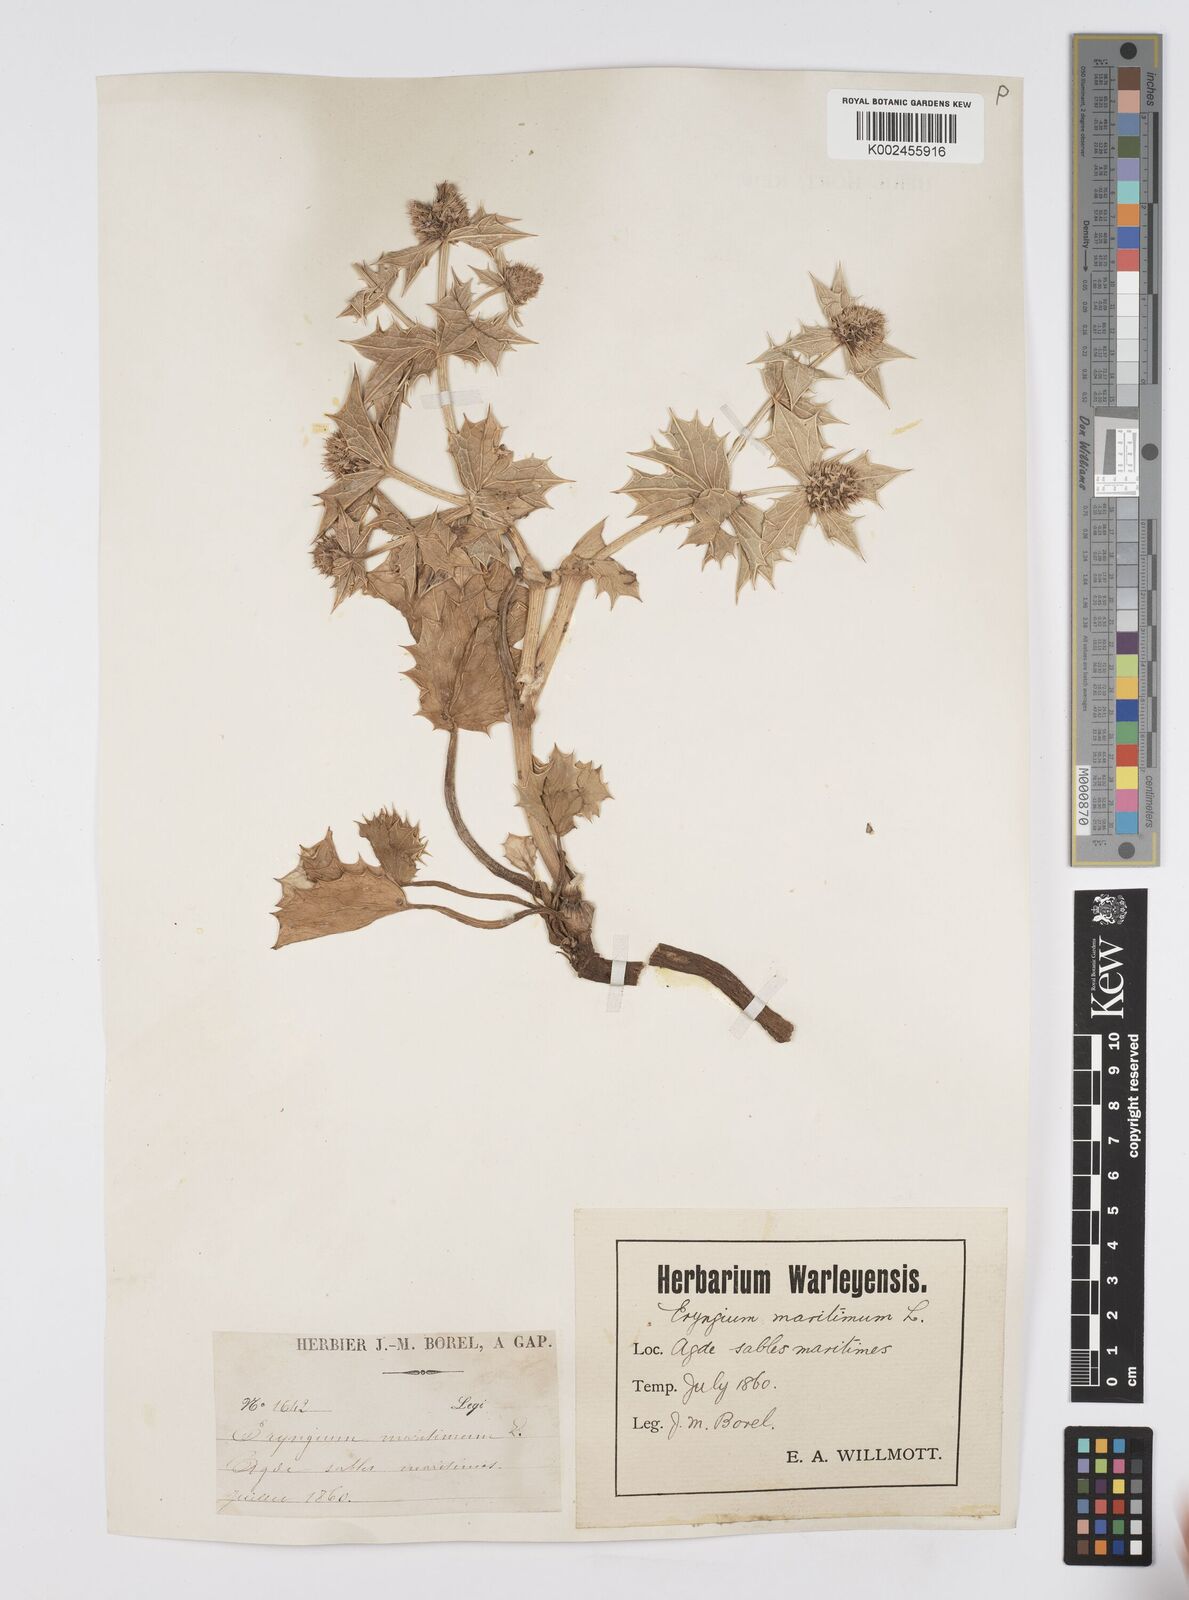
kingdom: Plantae
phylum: Tracheophyta
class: Magnoliopsida
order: Apiales
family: Apiaceae
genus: Eryngium
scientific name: Eryngium maritimum
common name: Sea-holly
